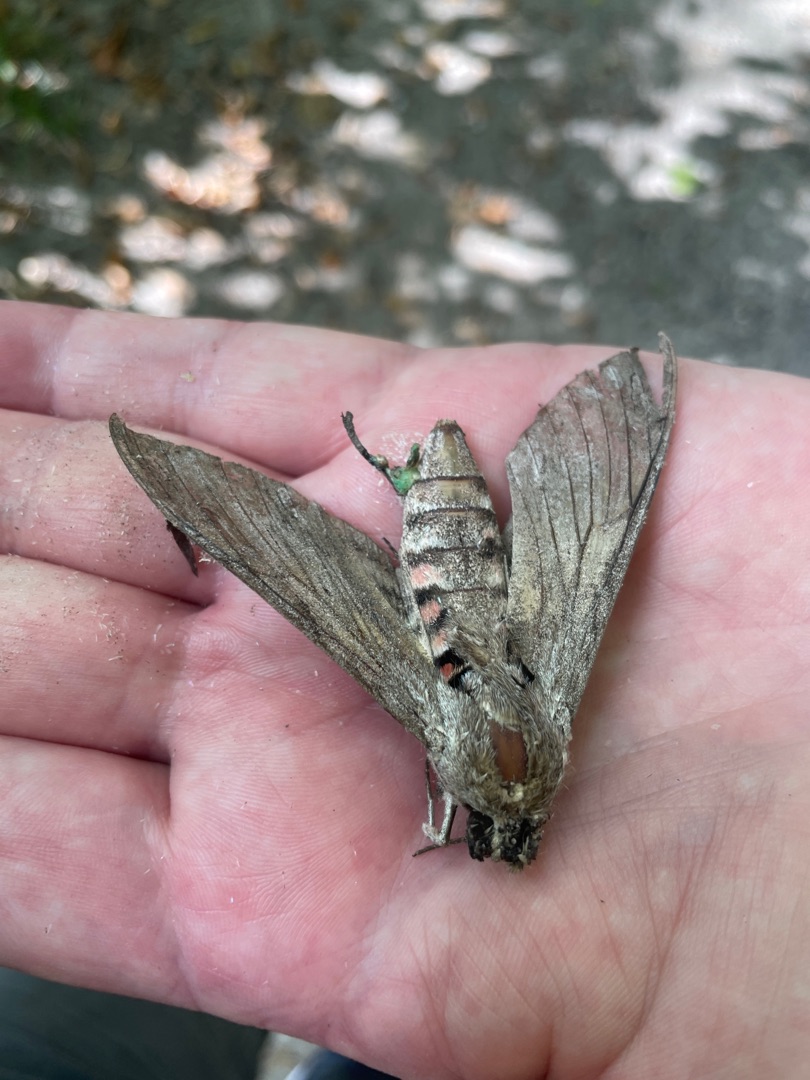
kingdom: Animalia
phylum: Arthropoda
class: Insecta
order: Lepidoptera
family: Sphingidae
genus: Agrius
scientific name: Agrius convolvuli
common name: Snerlesværmer
